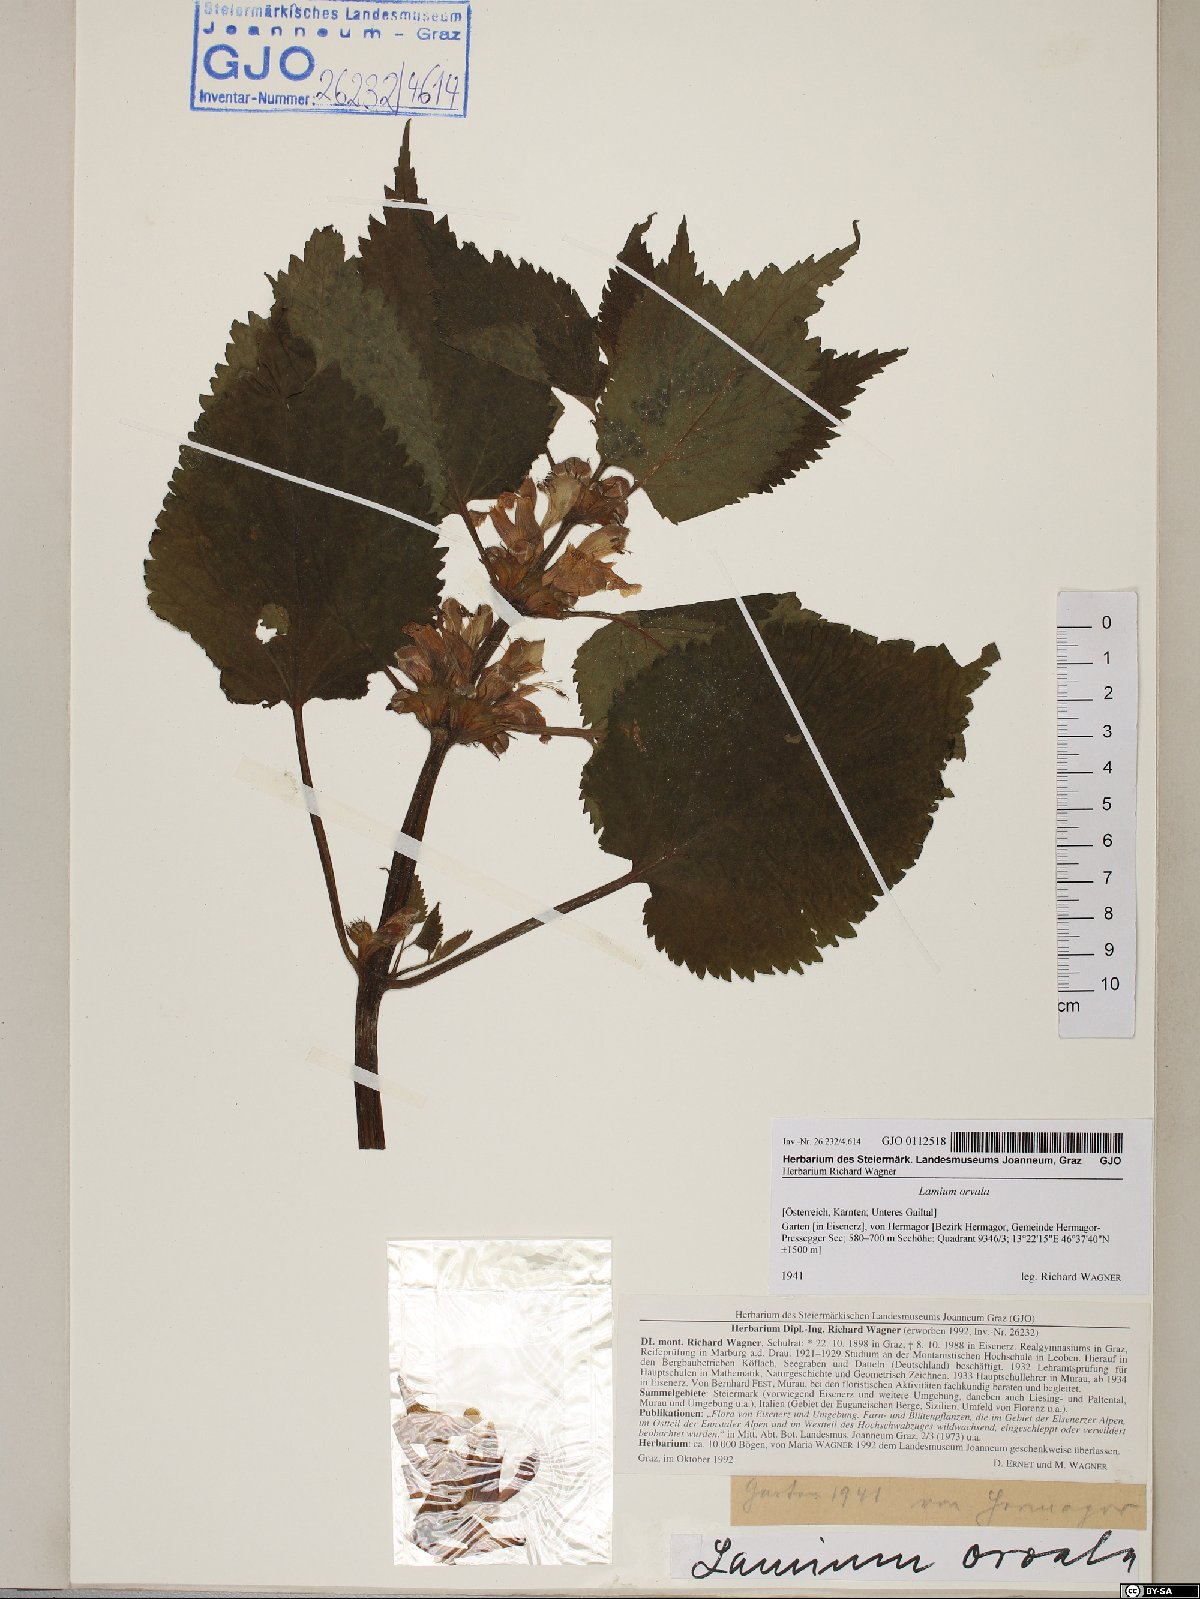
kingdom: Plantae
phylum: Tracheophyta
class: Magnoliopsida
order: Lamiales
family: Lamiaceae
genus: Lamium
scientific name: Lamium orvala
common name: Balm-leaved archangel
